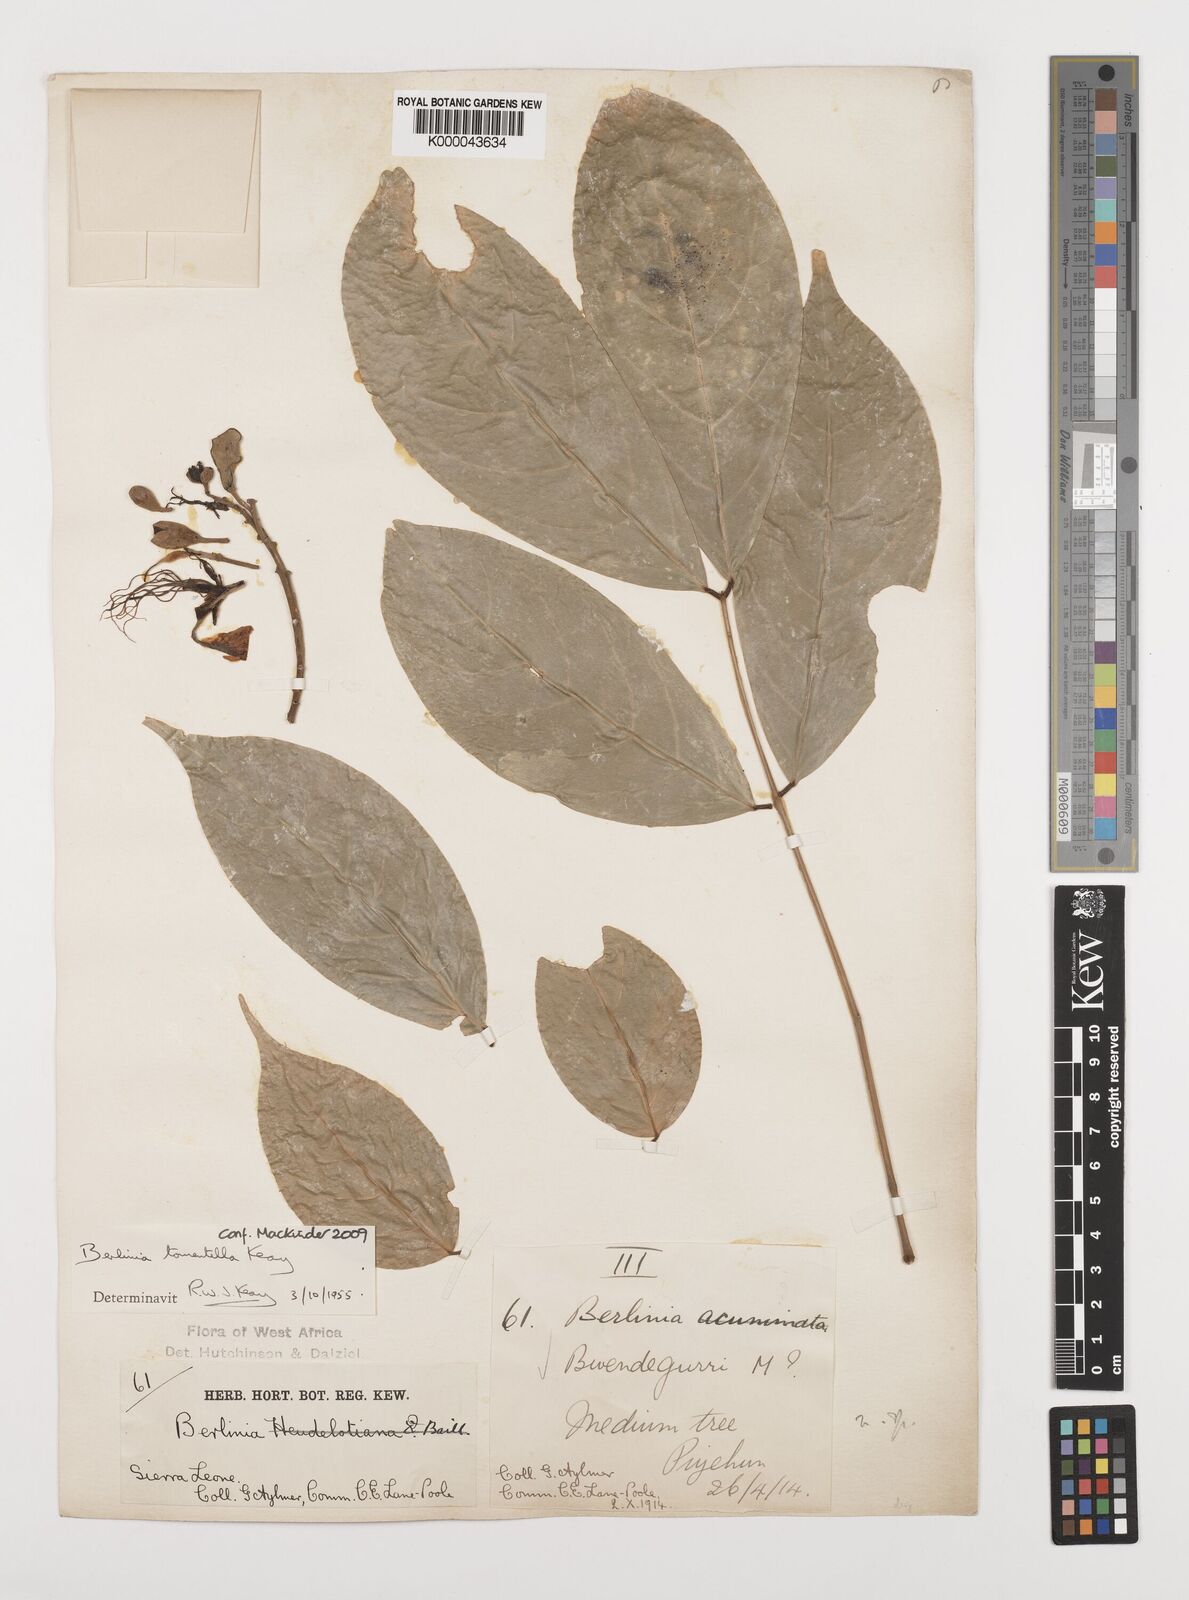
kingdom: Plantae
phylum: Tracheophyta
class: Magnoliopsida
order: Fabales
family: Fabaceae
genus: Berlinia
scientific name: Berlinia tomentella
